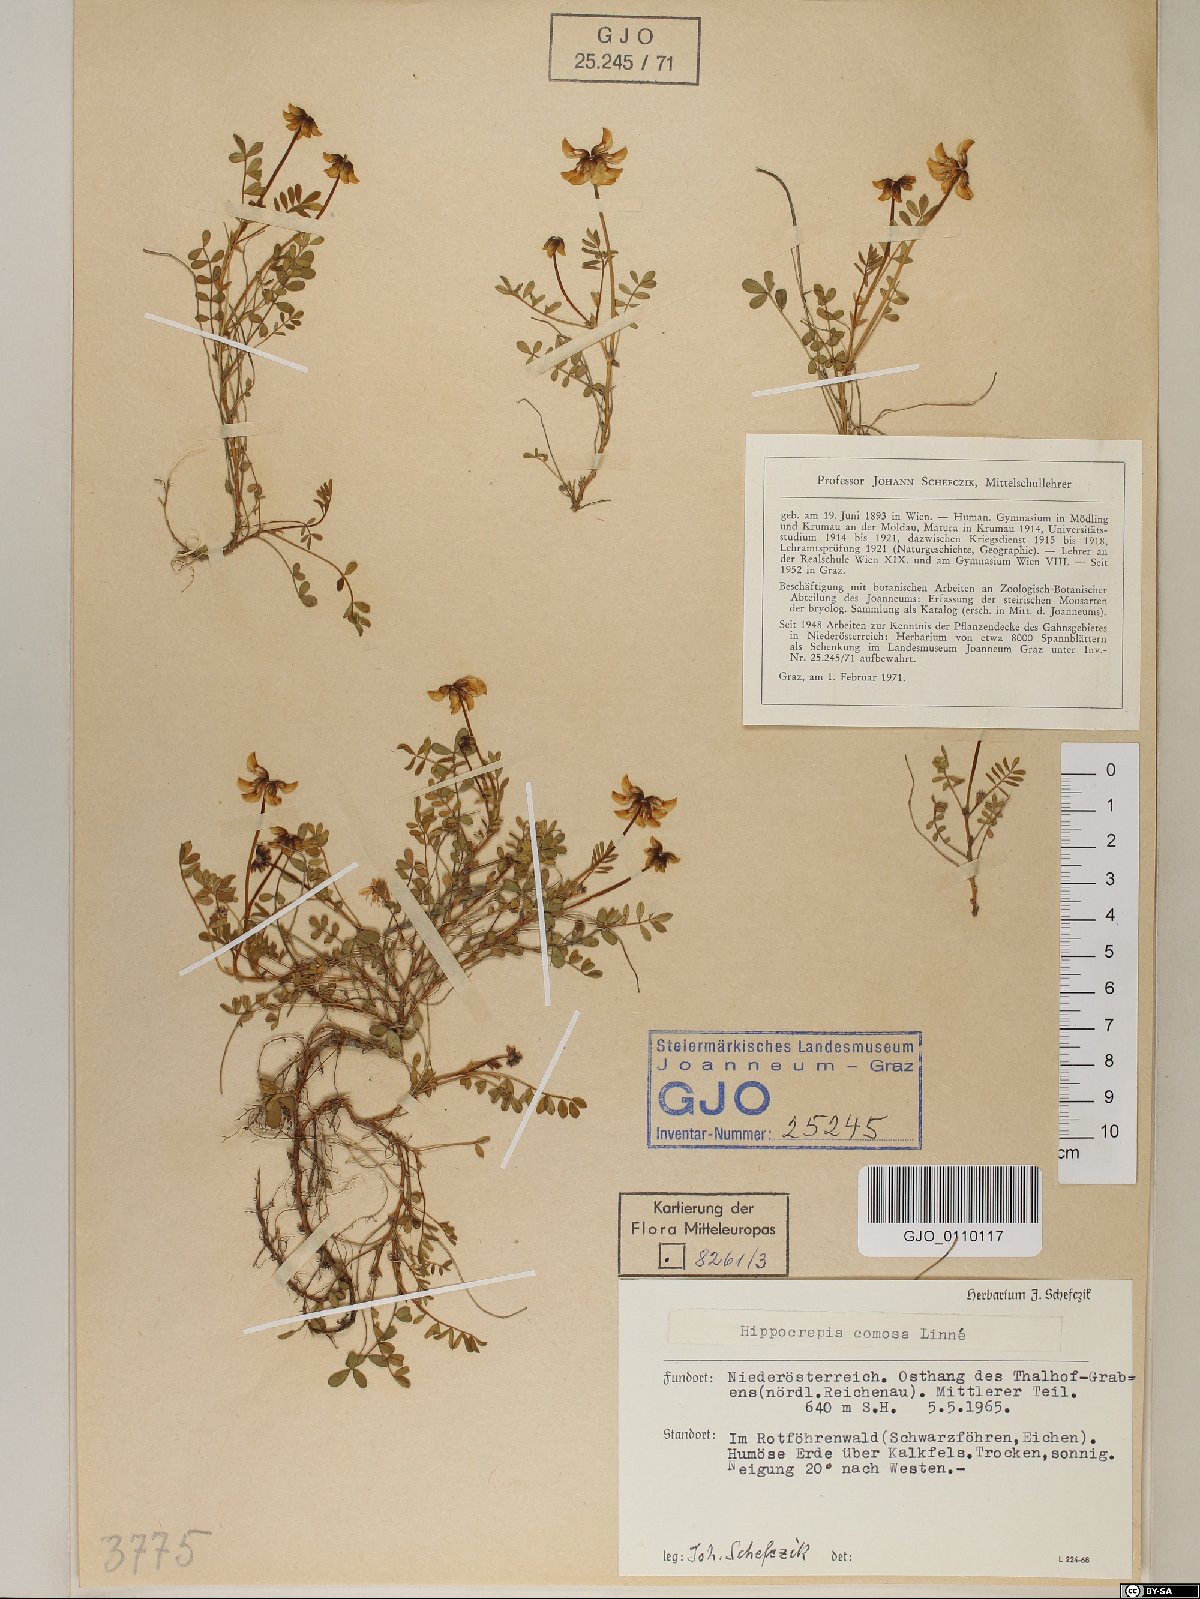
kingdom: Plantae
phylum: Tracheophyta
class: Magnoliopsida
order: Fabales
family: Fabaceae
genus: Hippocrepis
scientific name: Hippocrepis comosa
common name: Horseshoe vetch
